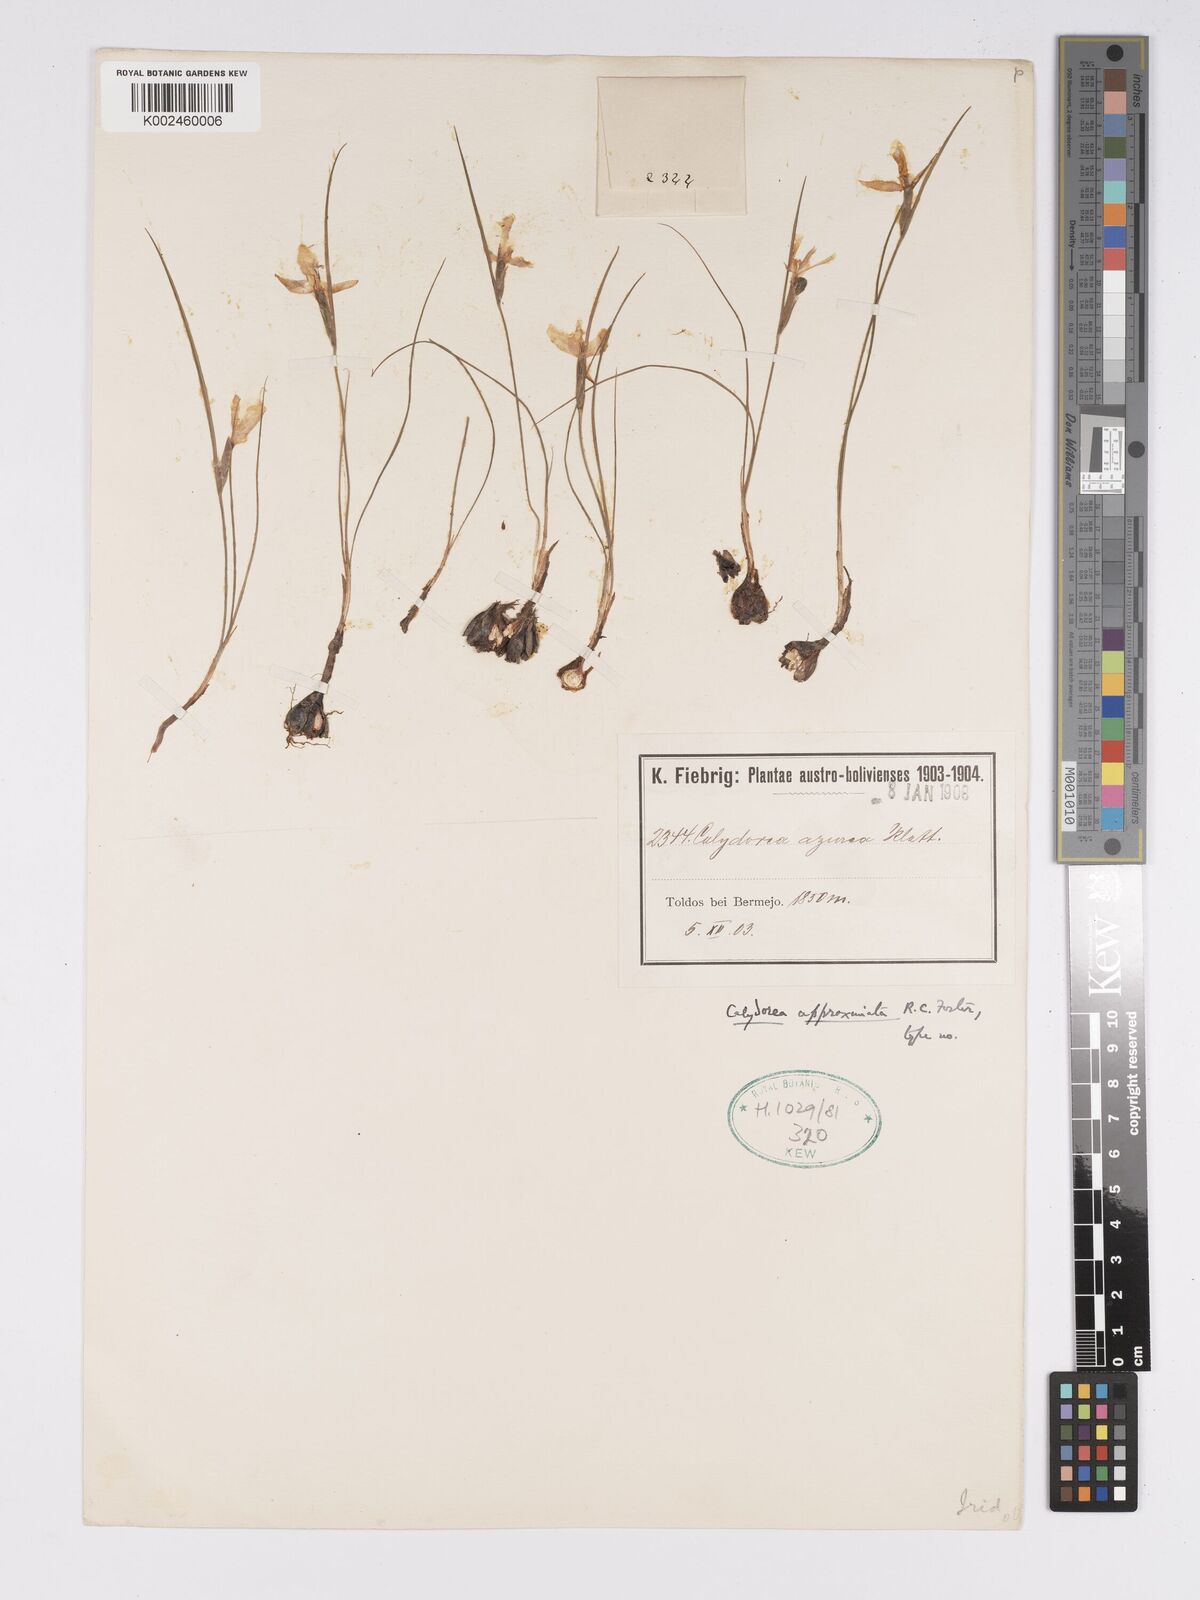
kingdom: Plantae
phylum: Tracheophyta
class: Liliopsida
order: Asparagales
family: Iridaceae
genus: Calydorea
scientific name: Calydorea approximata
